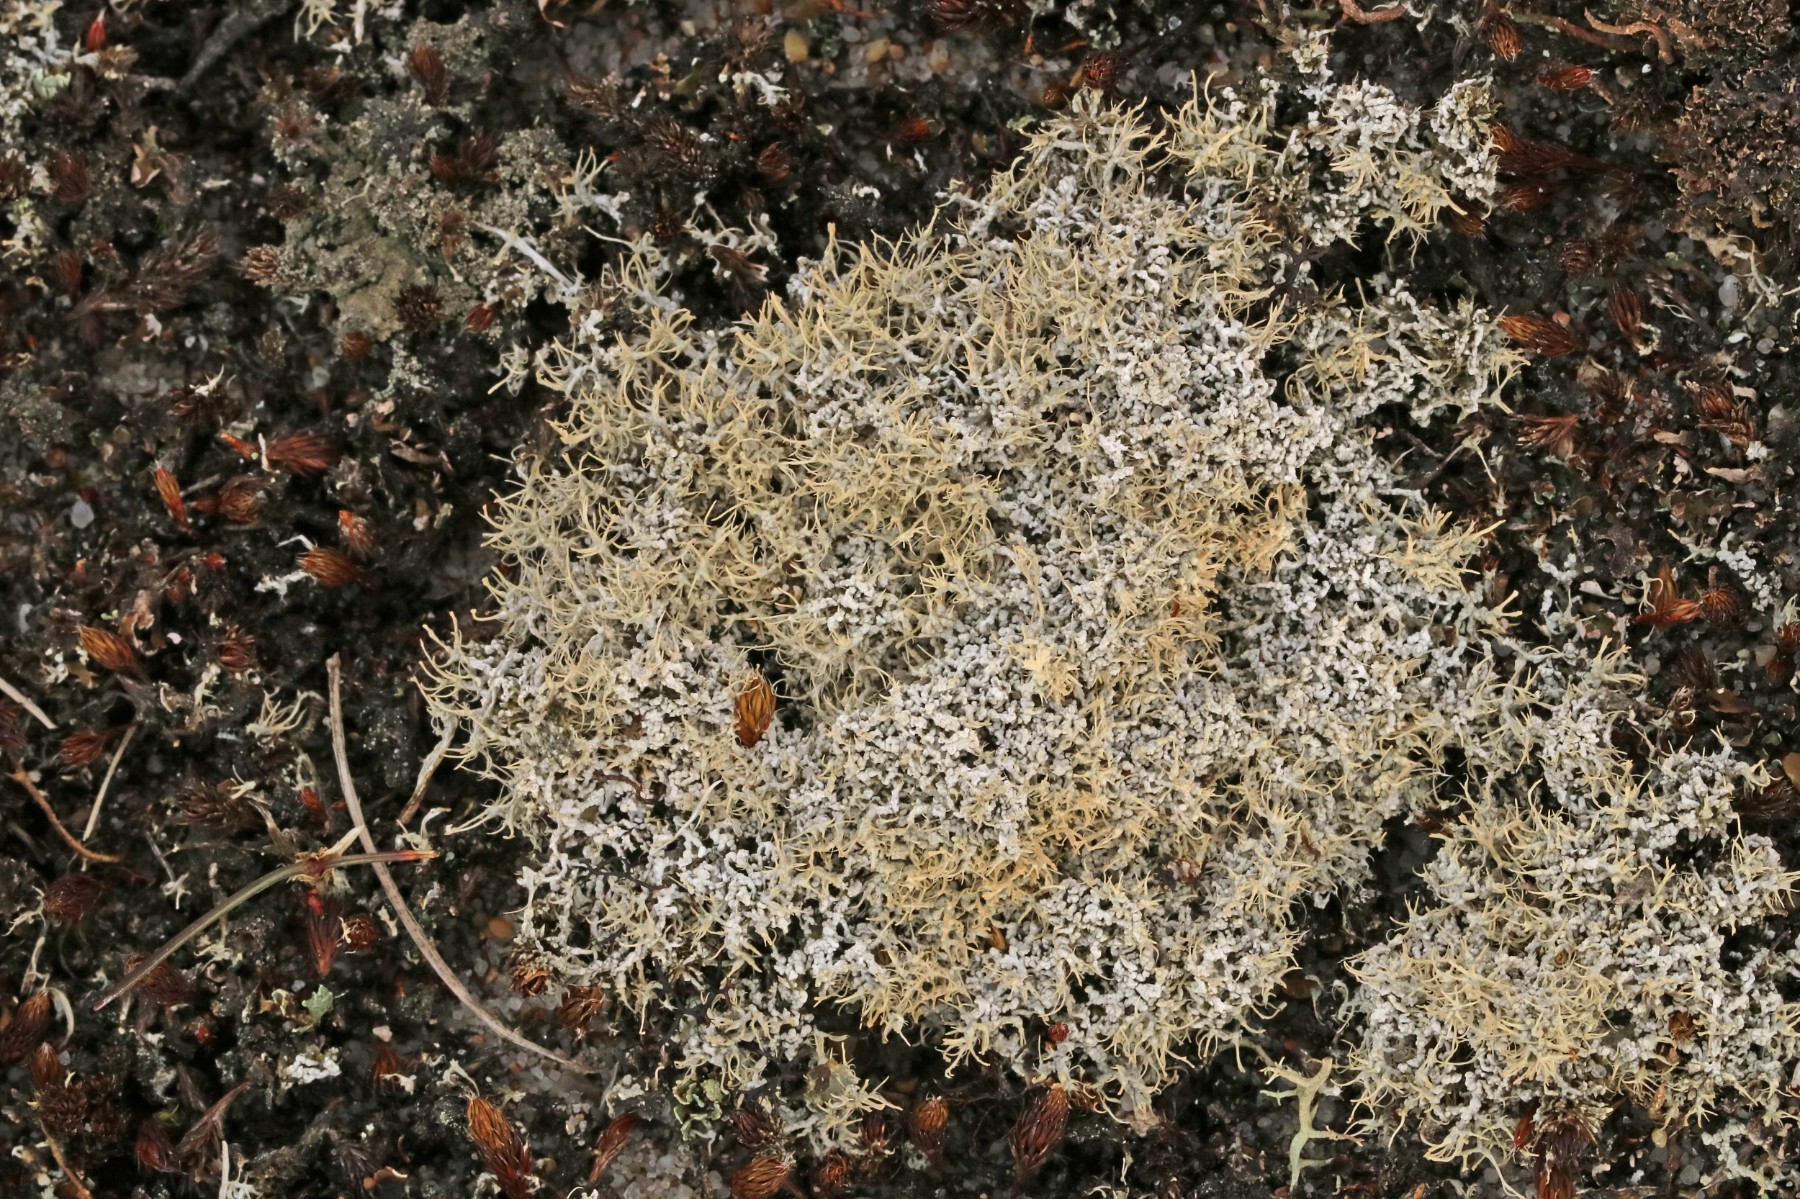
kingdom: Fungi
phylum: Ascomycota
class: Lecanoromycetes
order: Pertusariales
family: Ochrolechiaceae
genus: Ochrolechia
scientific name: Ochrolechia frigida
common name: fjeld-blegskivelav
